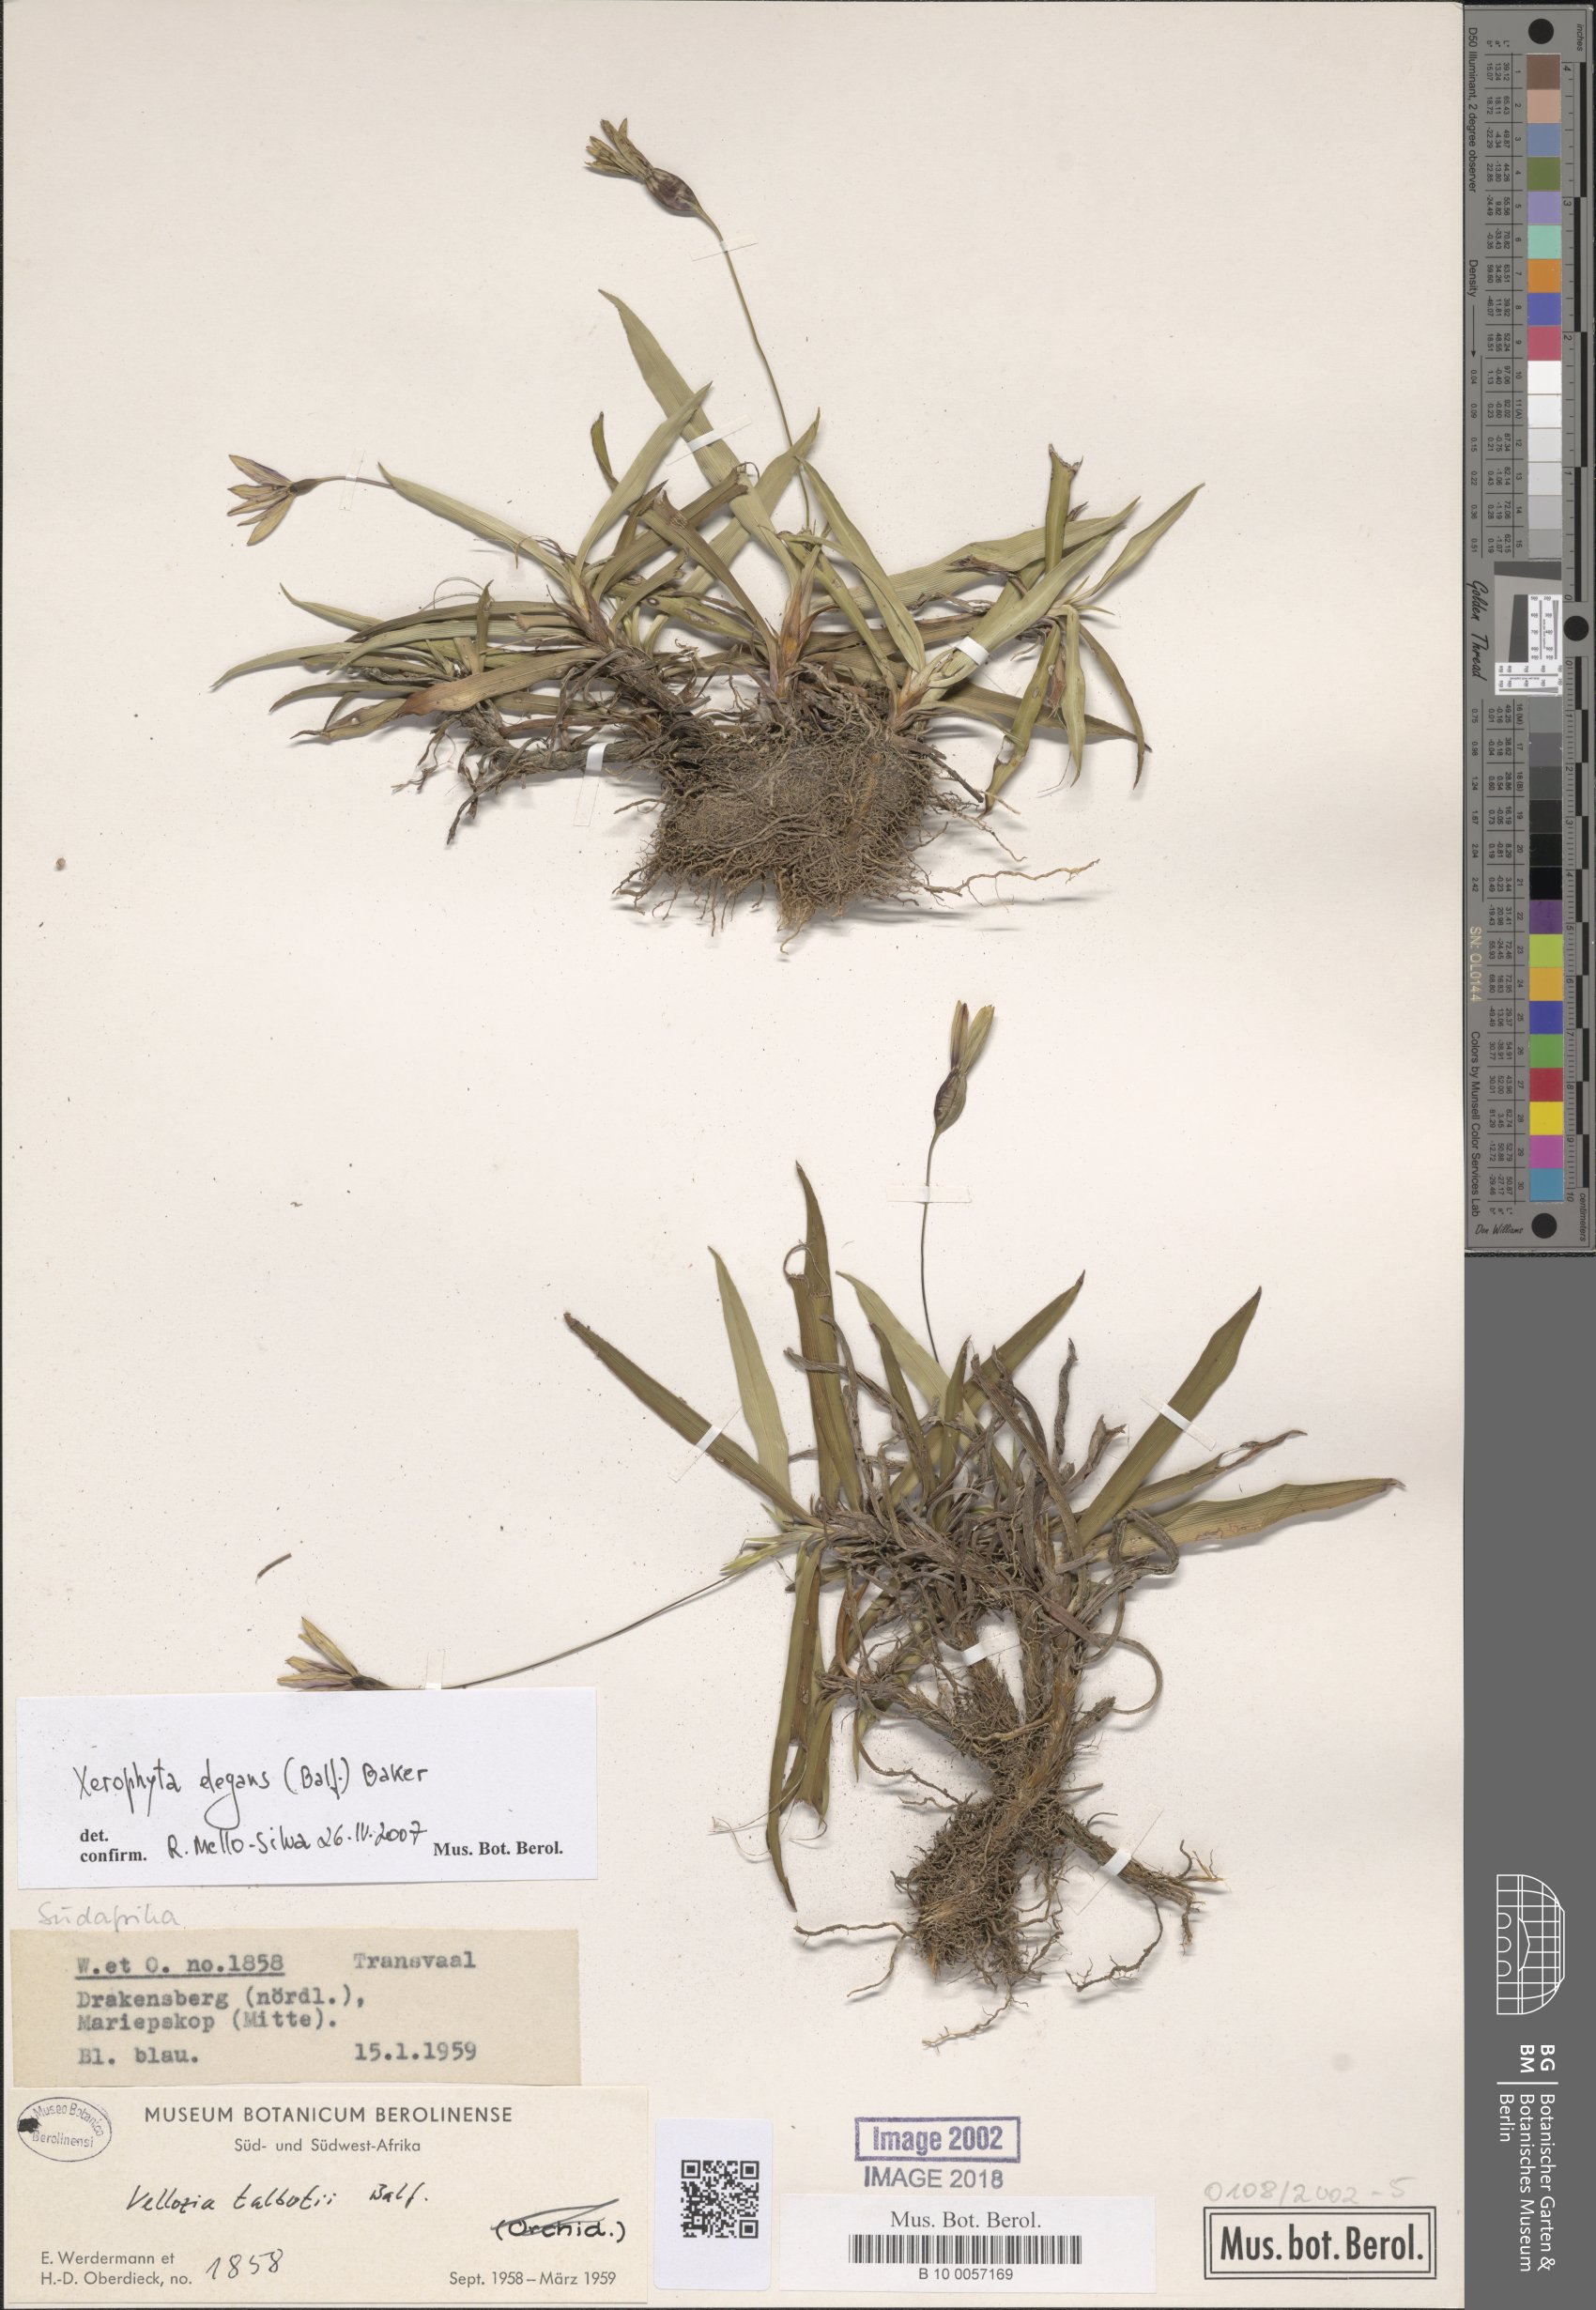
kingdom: Plantae
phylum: Tracheophyta
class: Liliopsida
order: Pandanales
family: Velloziaceae
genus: Xerophyta
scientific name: Xerophyta elegans
